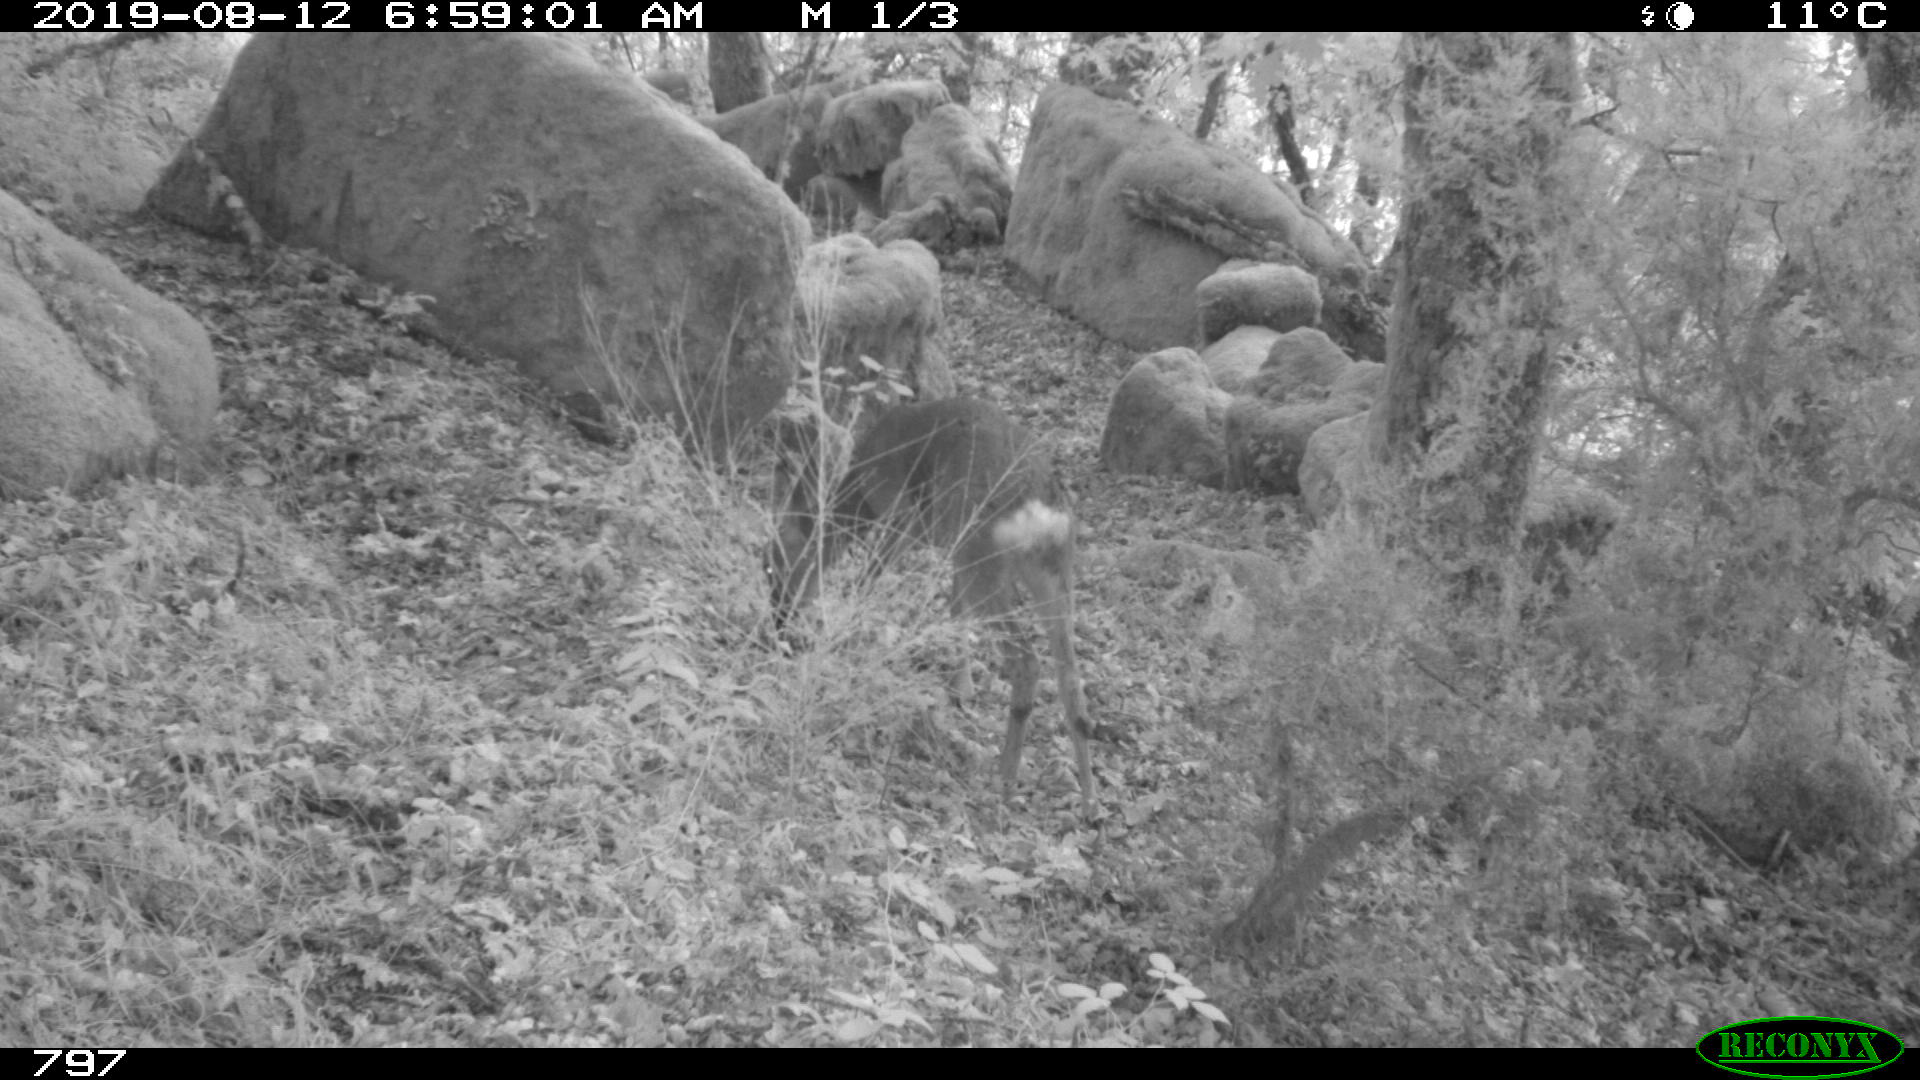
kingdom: Animalia
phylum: Chordata
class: Mammalia
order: Artiodactyla
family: Cervidae
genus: Capreolus
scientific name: Capreolus capreolus
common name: Western roe deer
